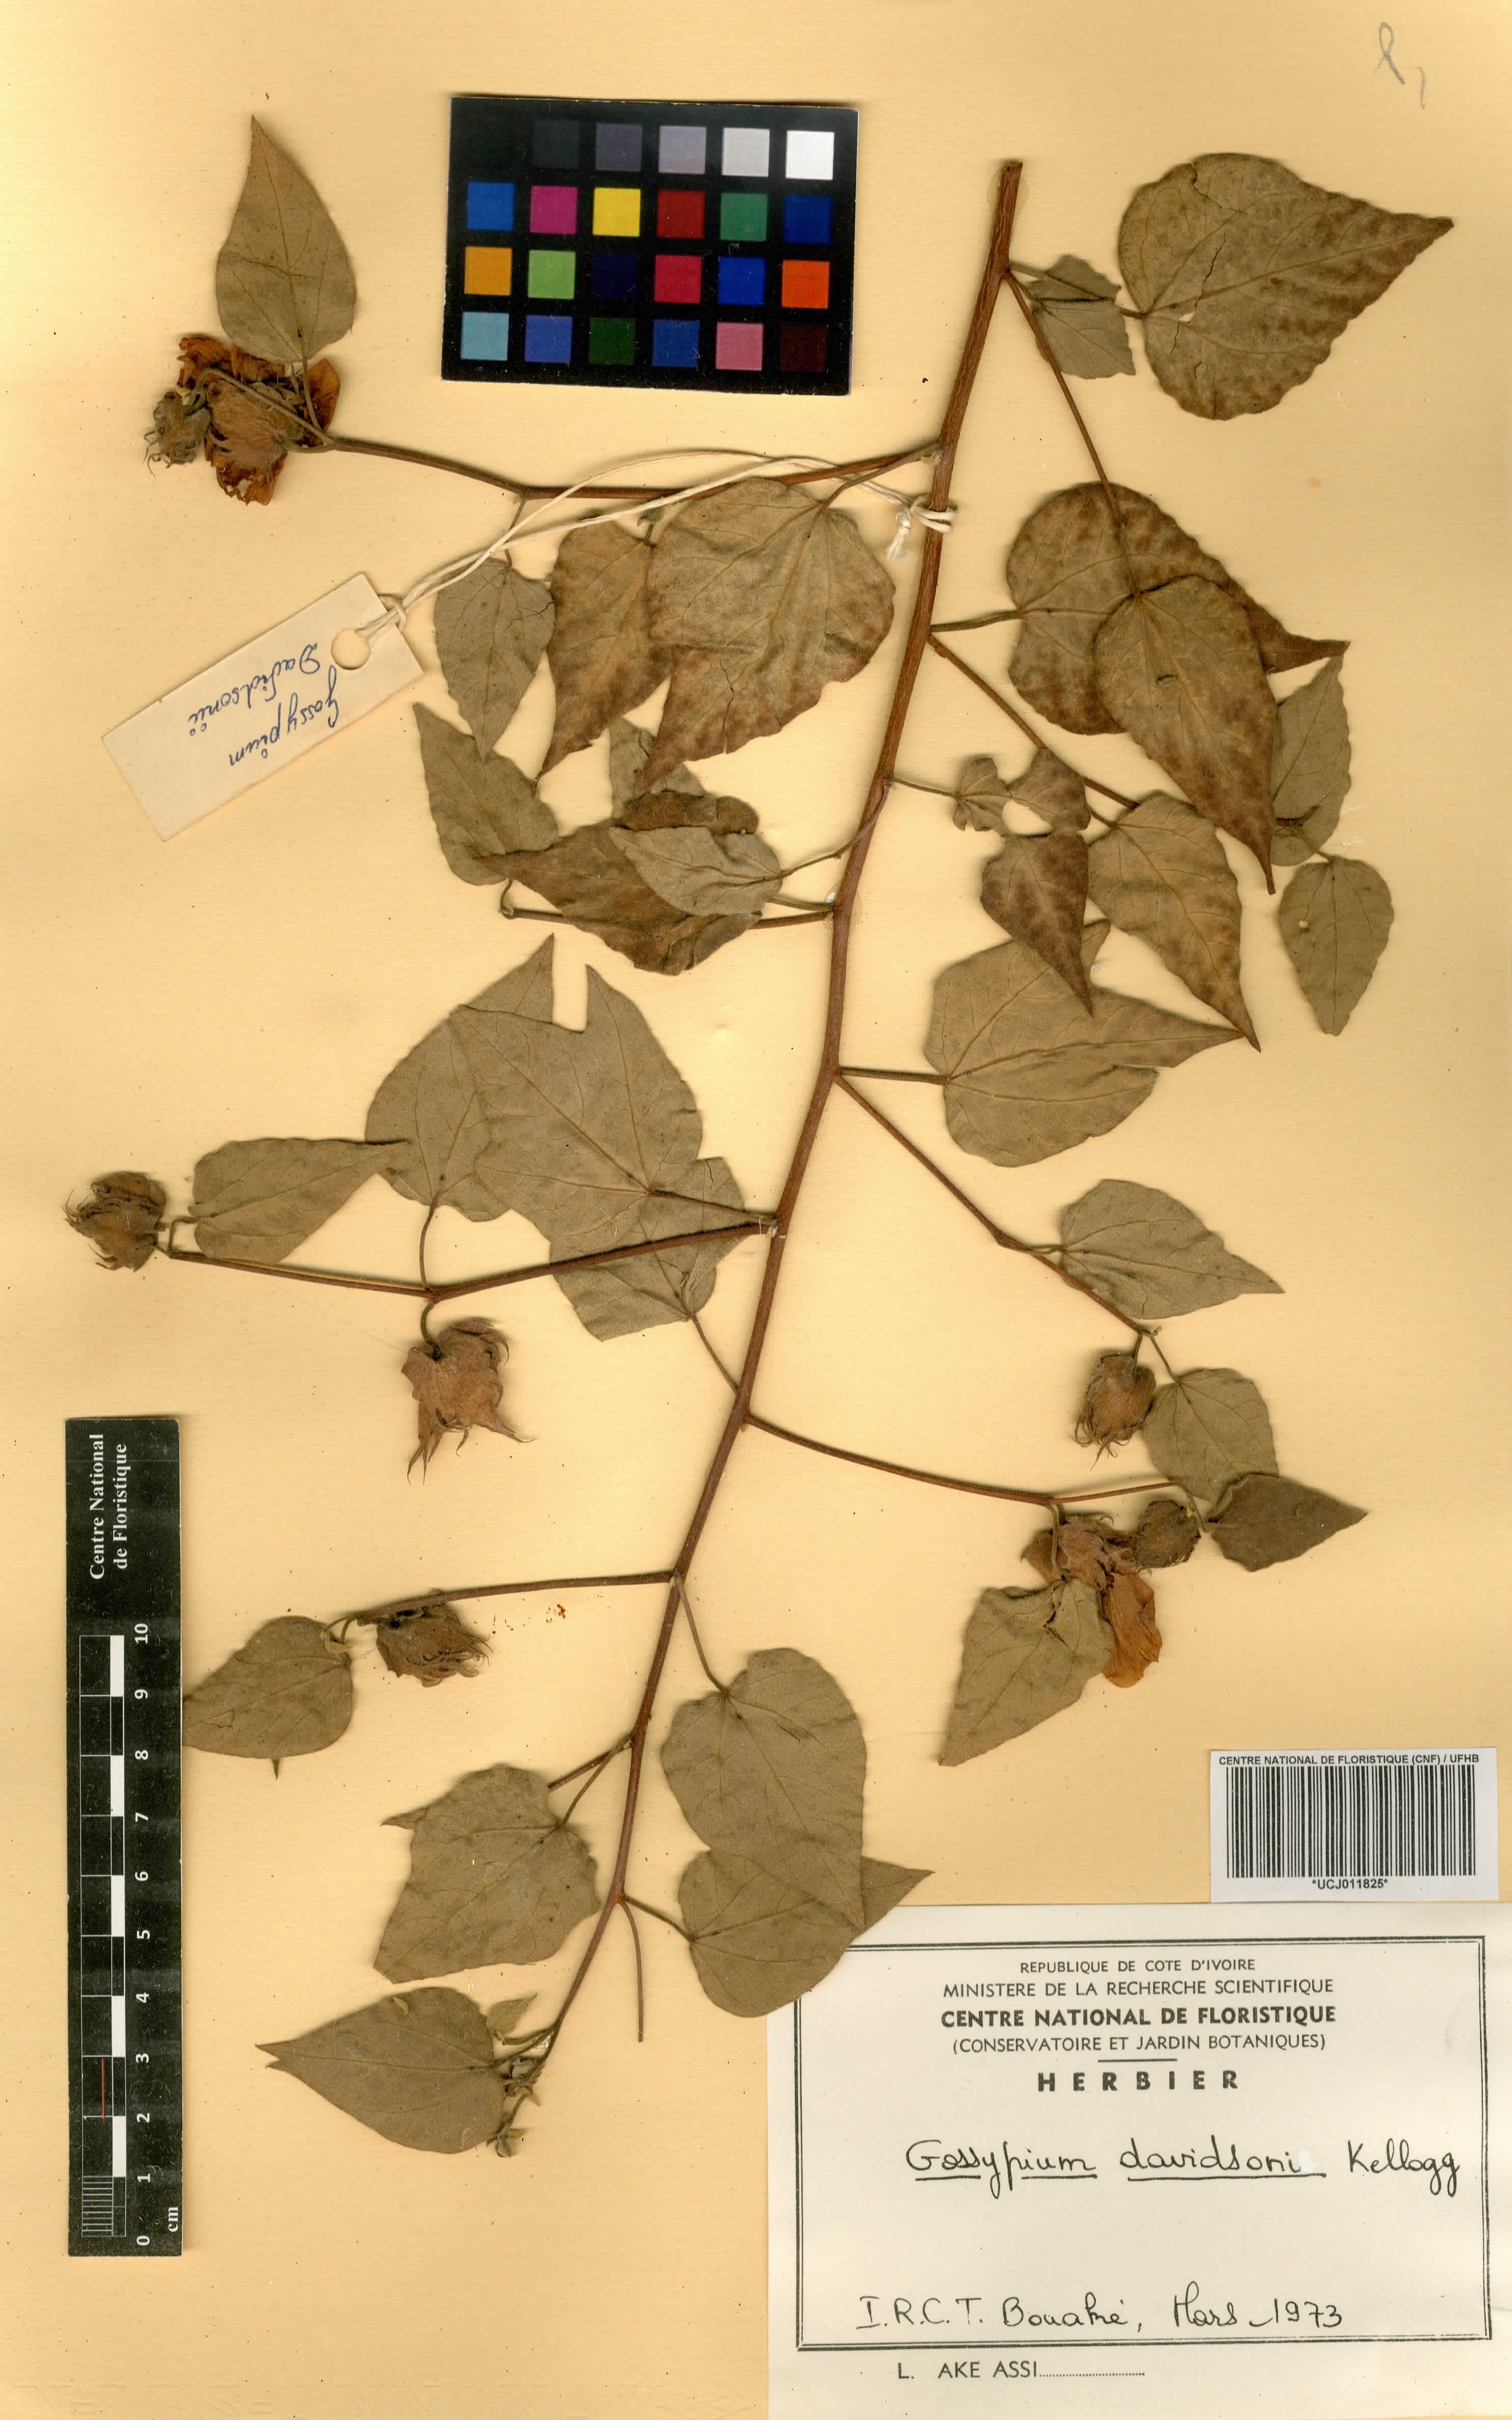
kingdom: Plantae
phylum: Tracheophyta
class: Magnoliopsida
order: Malvales
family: Malvaceae
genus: Gossypium
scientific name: Gossypium klotzschianum
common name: Galapagos cotton
